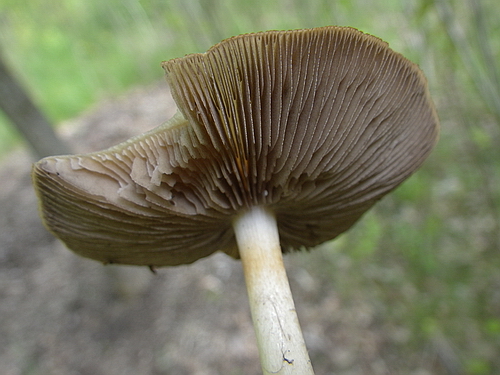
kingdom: Fungi
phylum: Basidiomycota
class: Agaricomycetes
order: Agaricales
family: Psathyrellaceae
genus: Psathyrella
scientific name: Psathyrella spadiceogrisea
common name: gråbrun mørkhat
